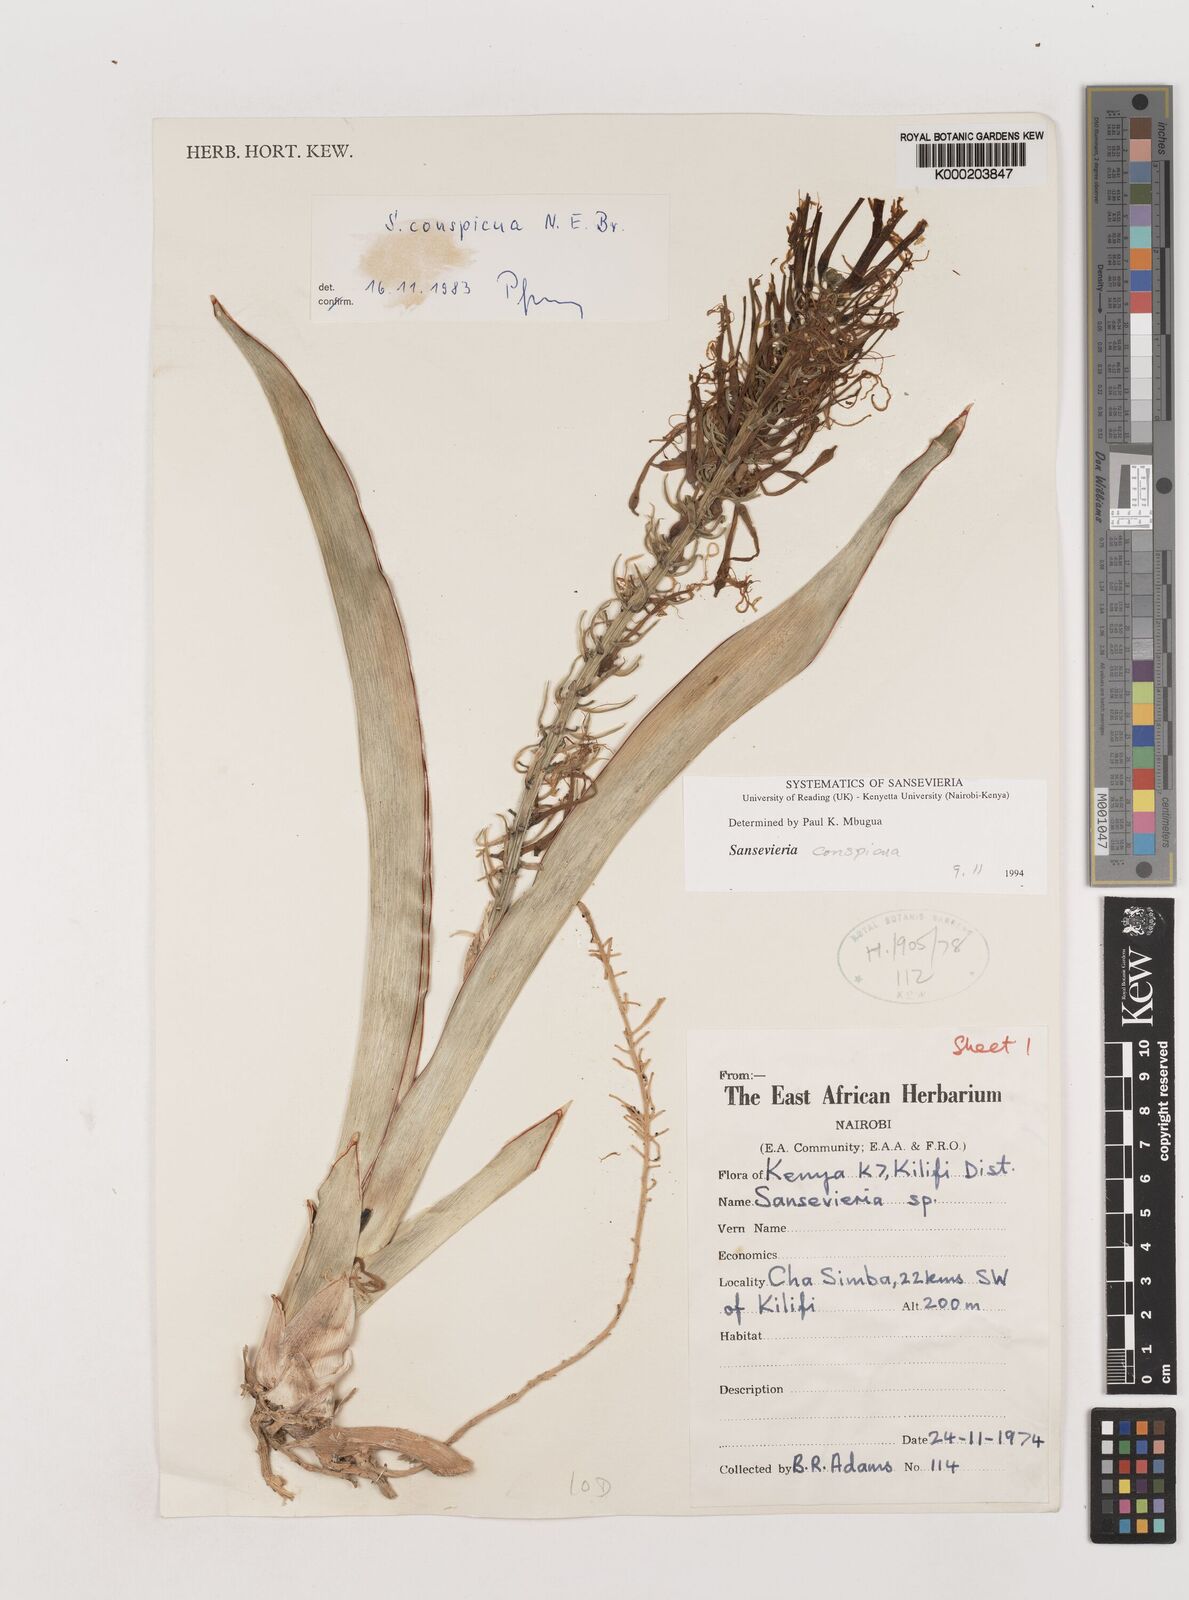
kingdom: Plantae
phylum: Tracheophyta
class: Liliopsida
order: Asparagales
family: Asparagaceae
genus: Dracaena
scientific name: Dracaena conspicua
